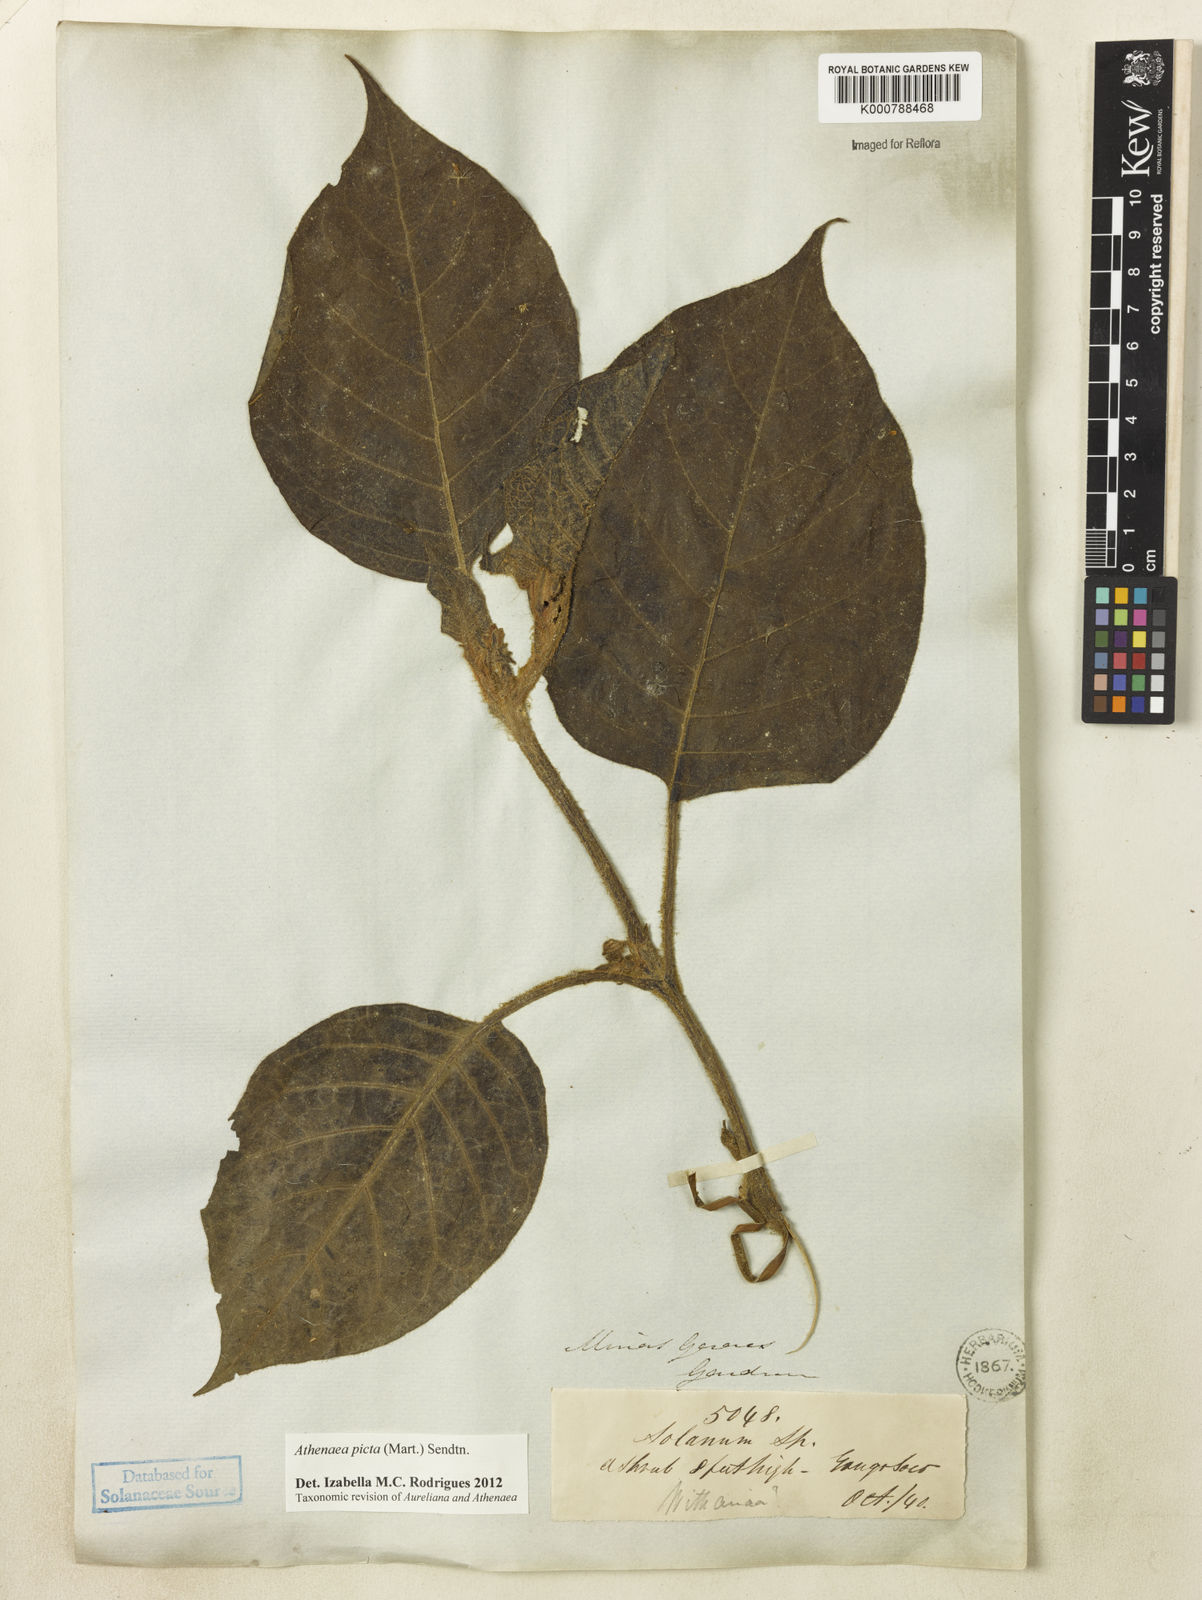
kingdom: Plantae
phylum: Tracheophyta
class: Magnoliopsida
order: Solanales
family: Solanaceae
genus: Athenaea
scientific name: Athenaea picta
